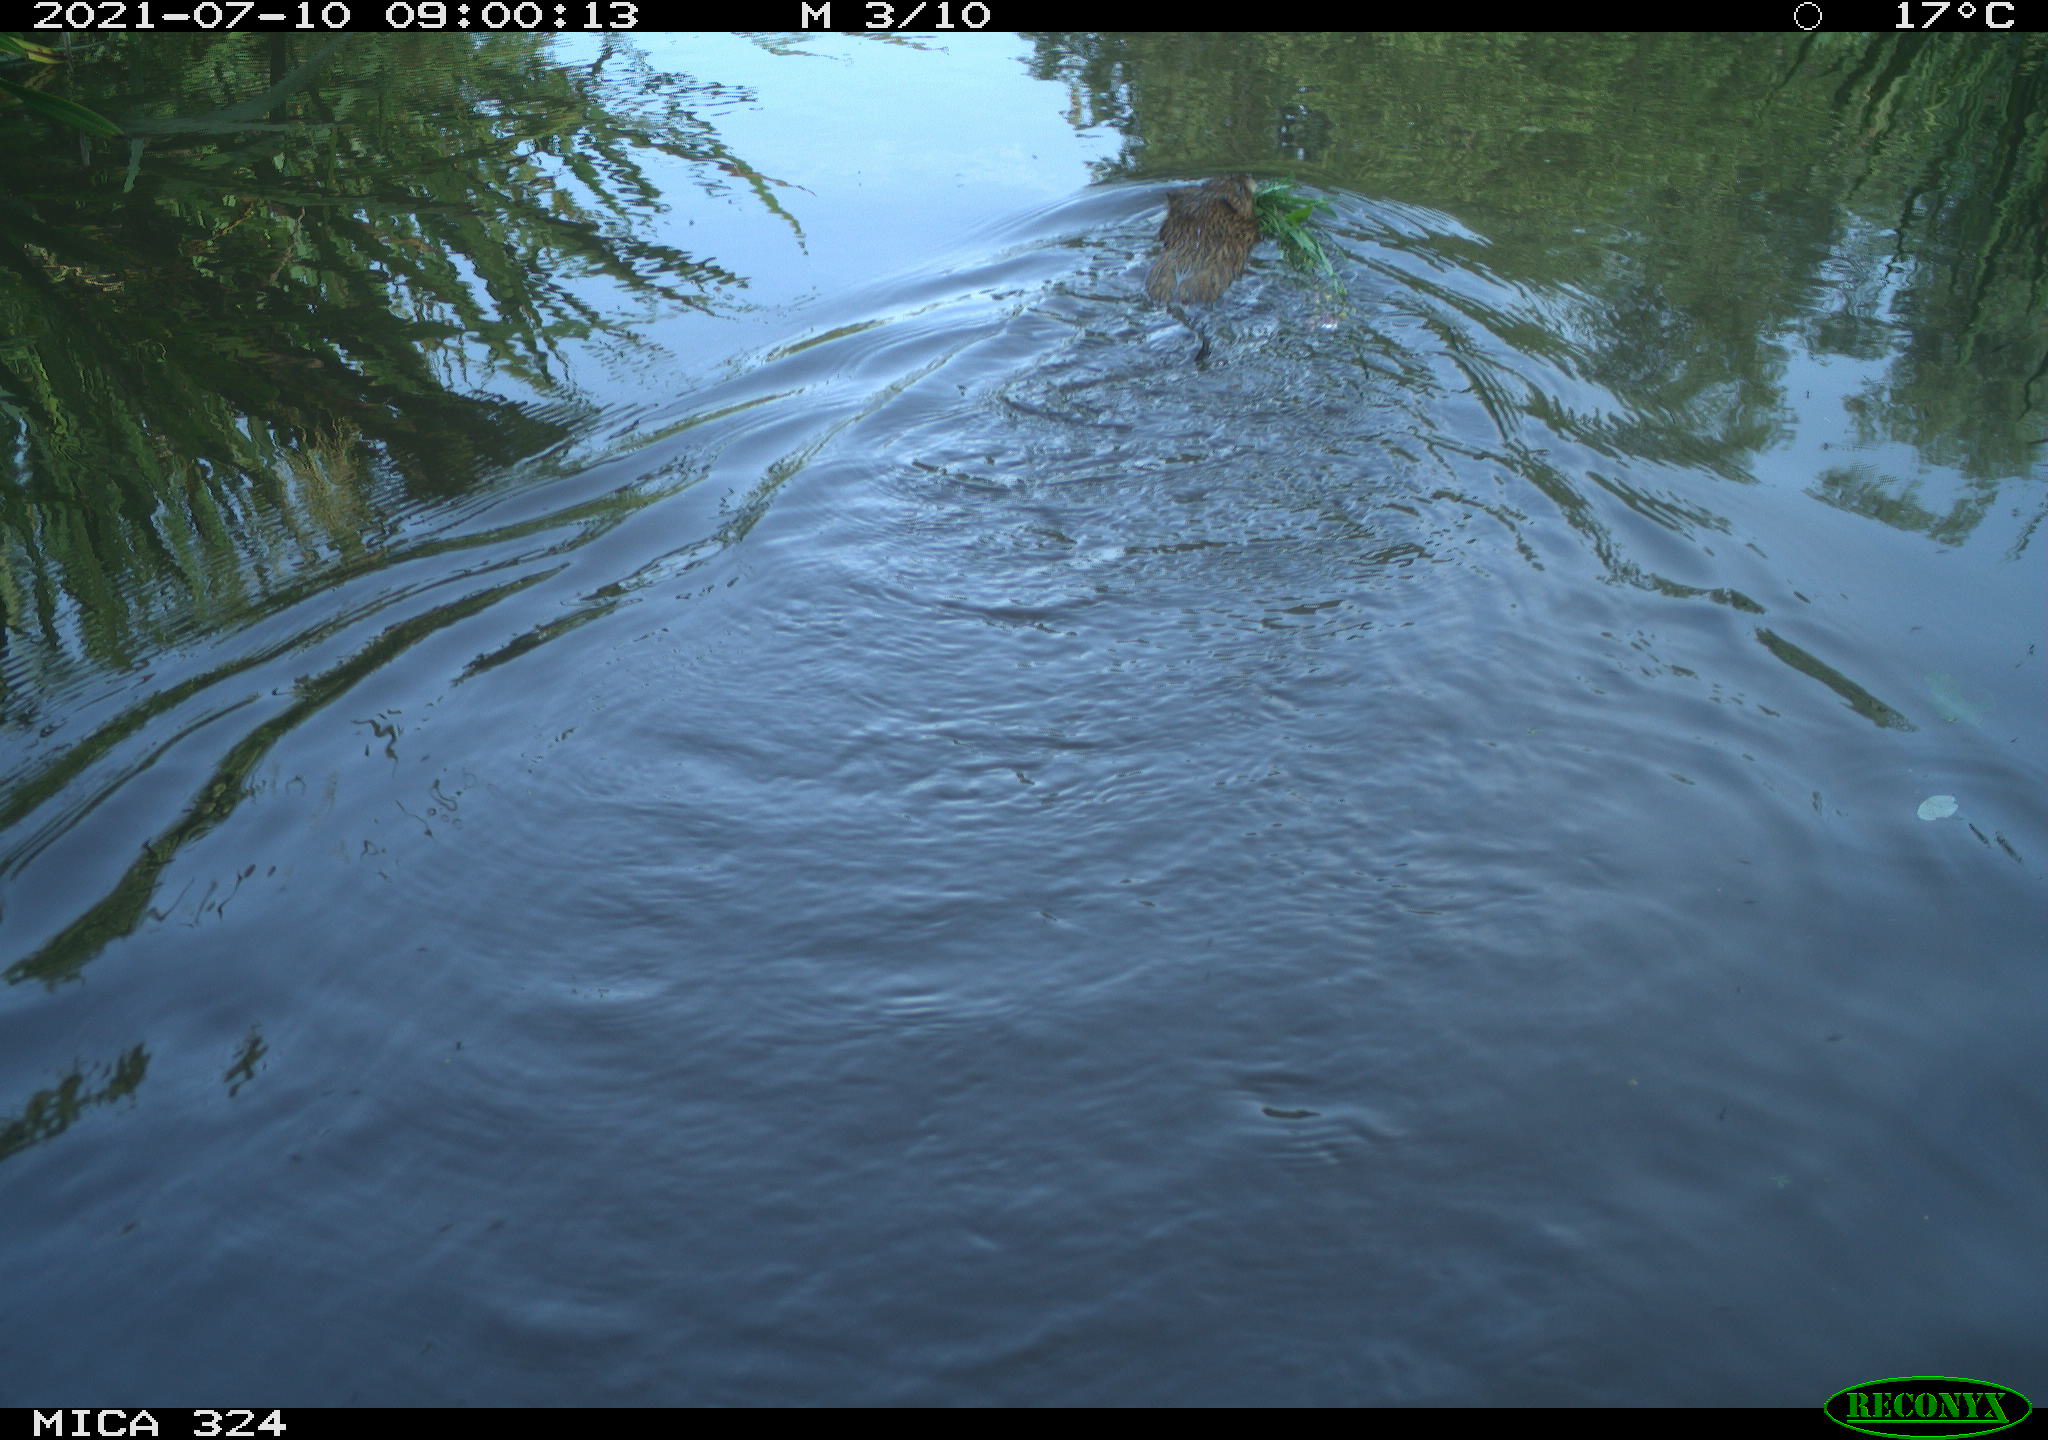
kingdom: Animalia
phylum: Chordata
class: Mammalia
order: Rodentia
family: Cricetidae
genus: Ondatra
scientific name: Ondatra zibethicus
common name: Muskrat
